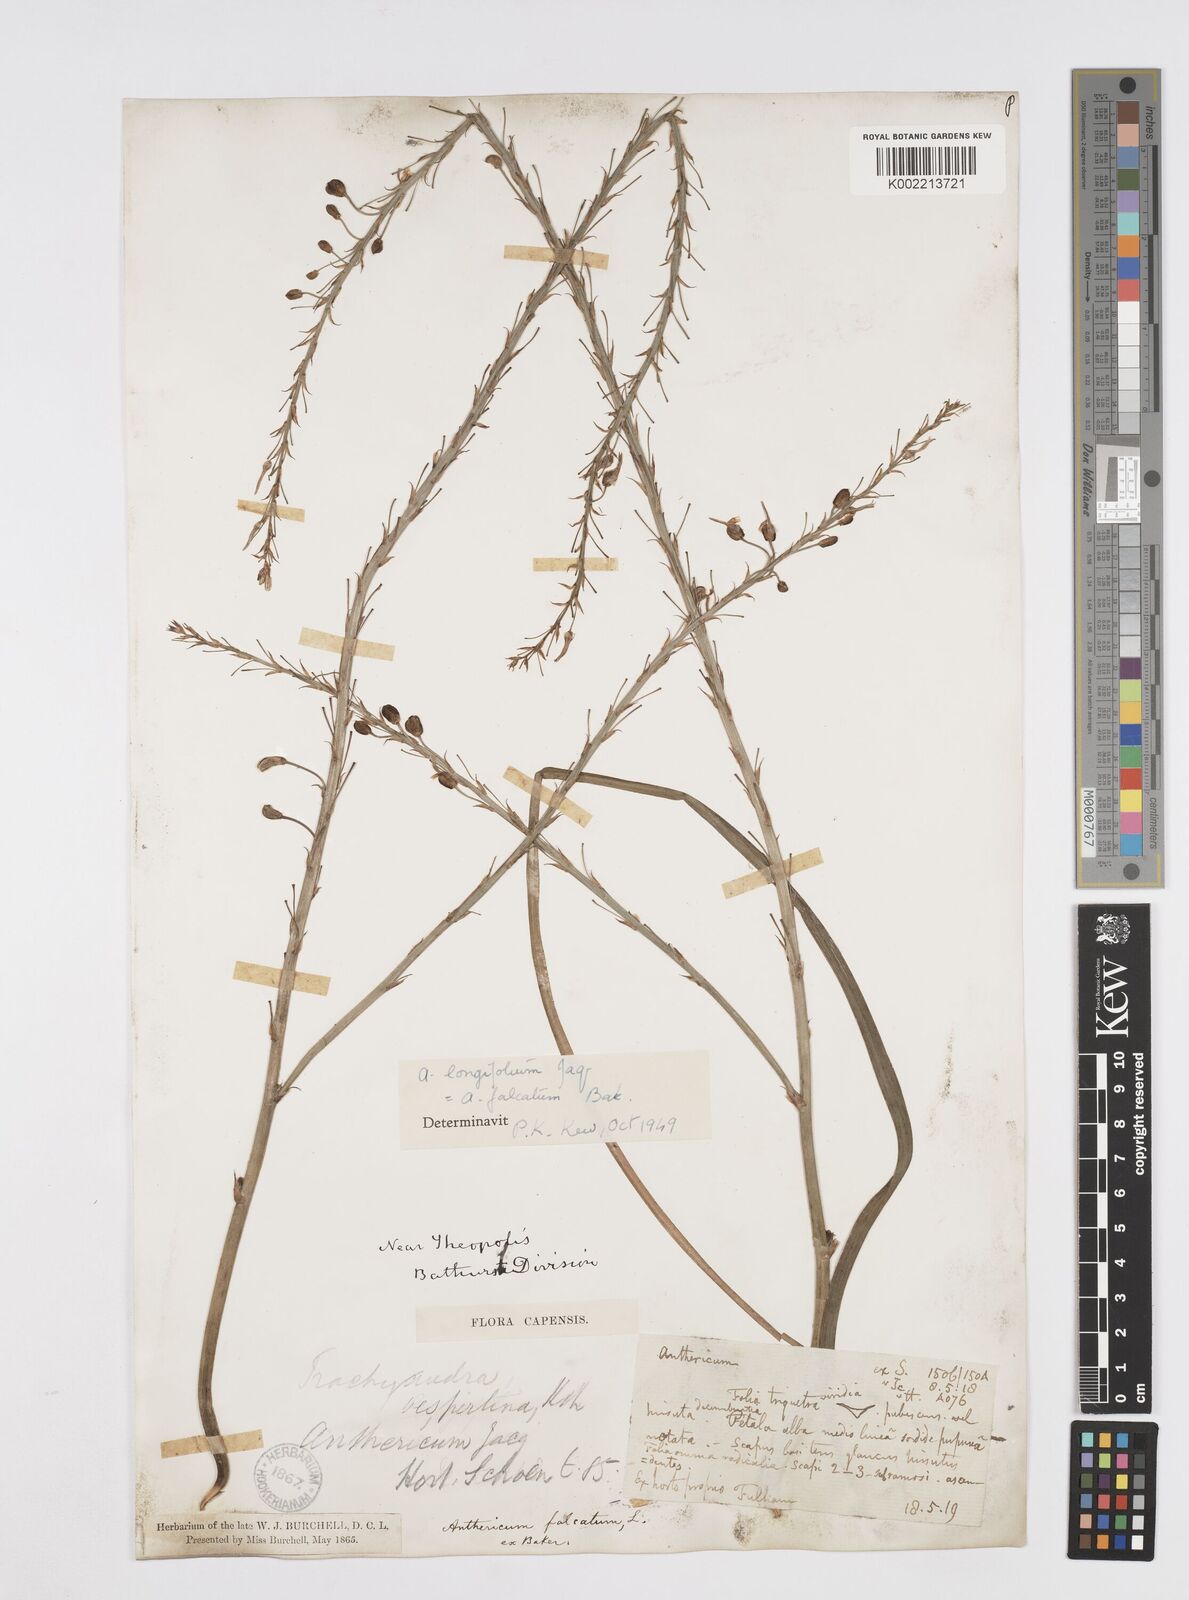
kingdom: Plantae
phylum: Tracheophyta
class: Liliopsida
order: Asparagales
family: Asphodelaceae
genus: Trachyandra
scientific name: Trachyandra ciliata
